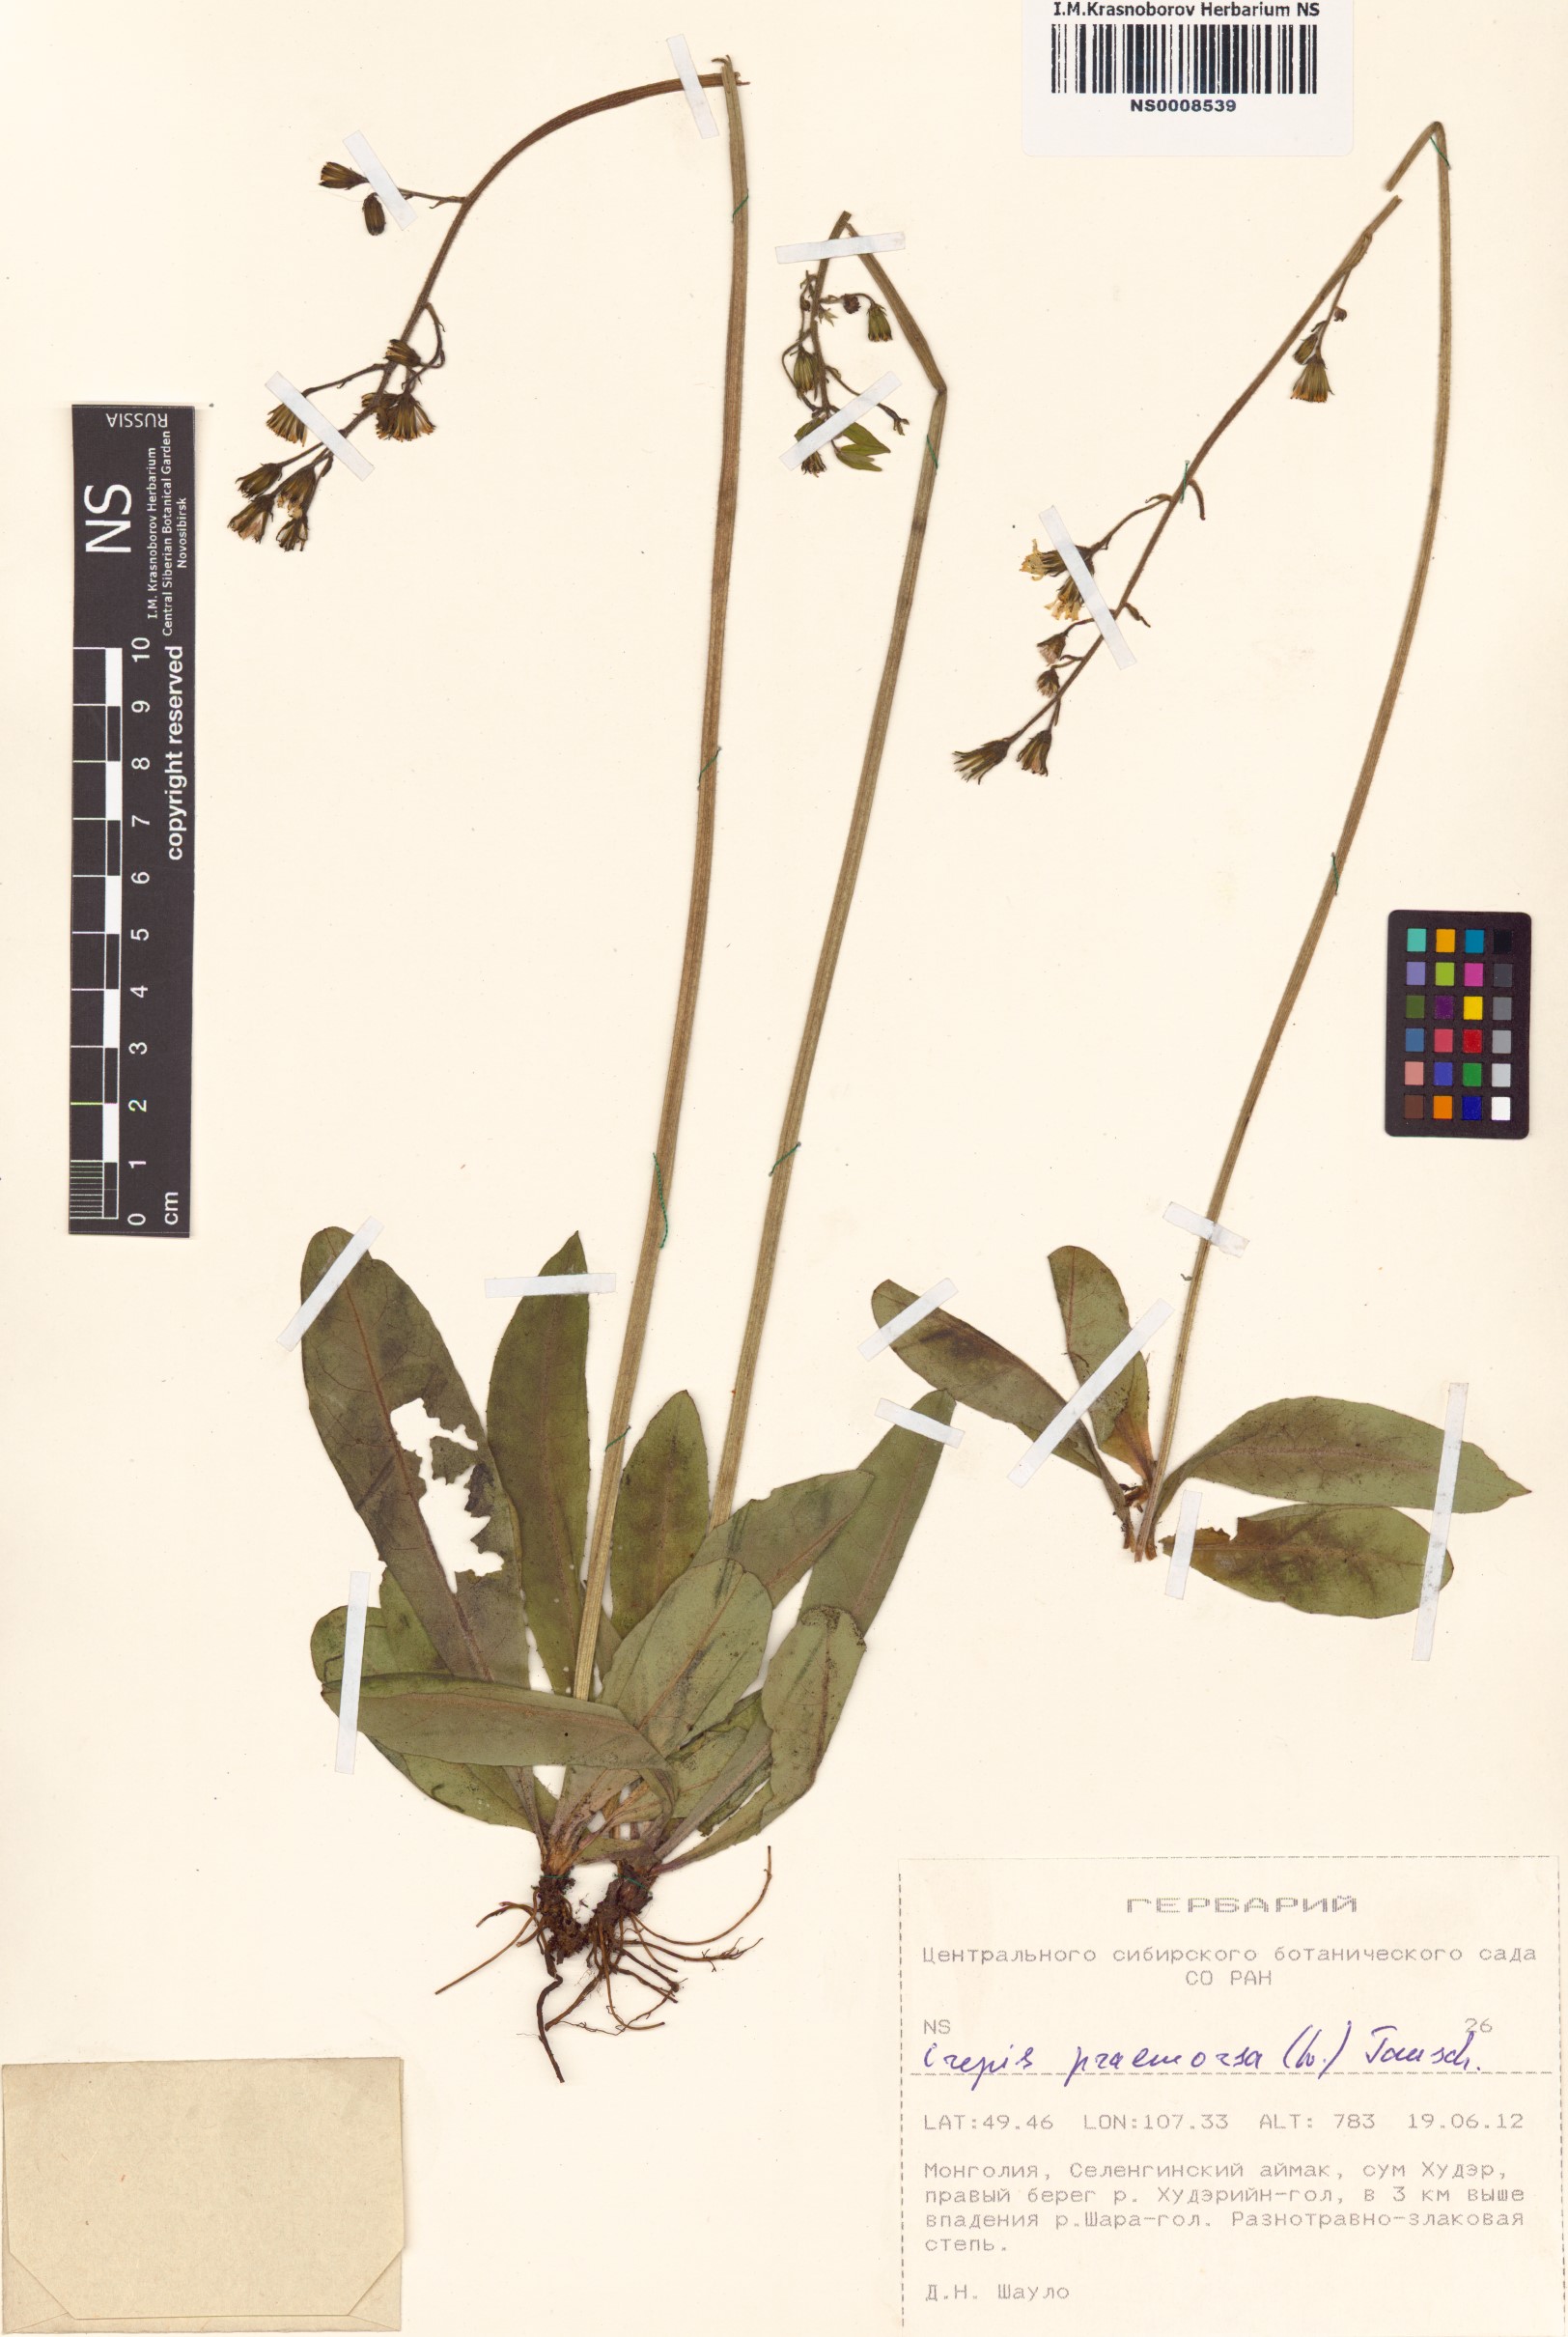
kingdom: Plantae
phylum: Tracheophyta
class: Magnoliopsida
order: Asterales
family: Asteraceae
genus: Crepis
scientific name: Crepis praemorsa
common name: Leafless hawk's-beard
